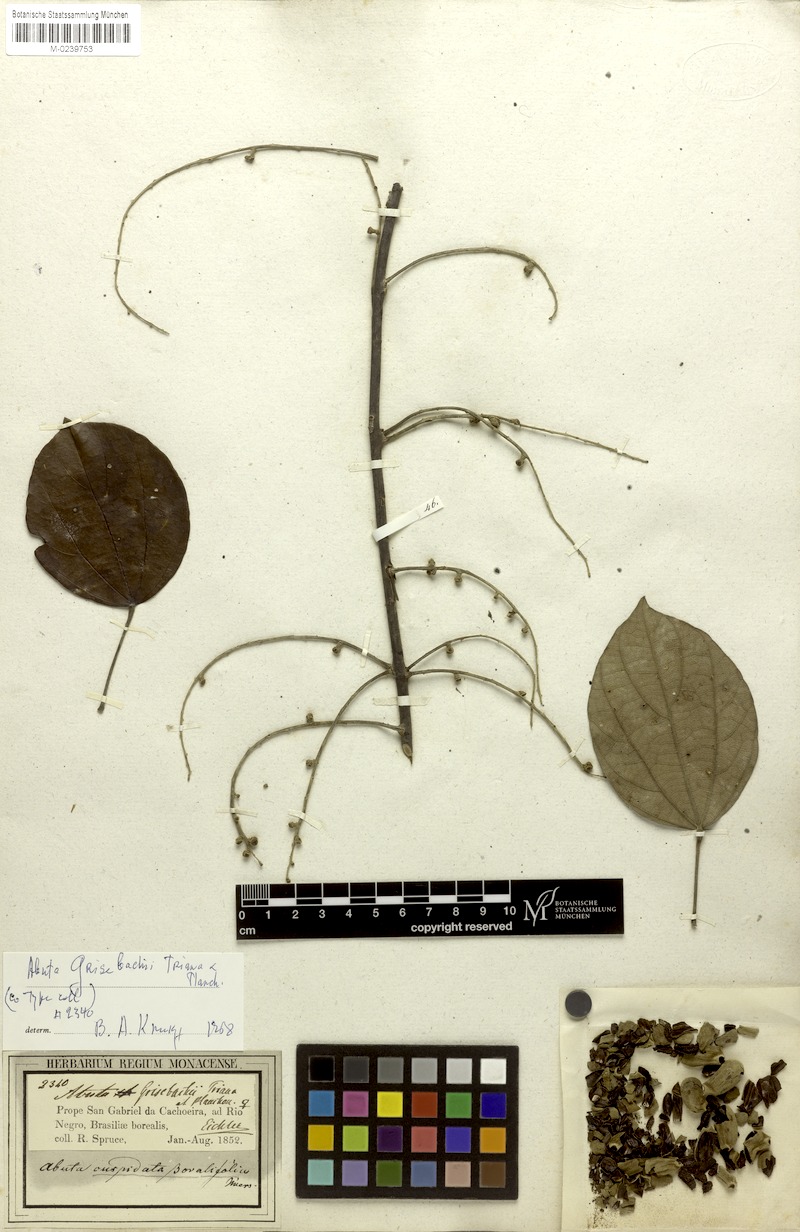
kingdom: Plantae
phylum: Tracheophyta
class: Magnoliopsida
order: Ranunculales
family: Menispermaceae
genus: Abuta
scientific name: Abuta grisebachii
